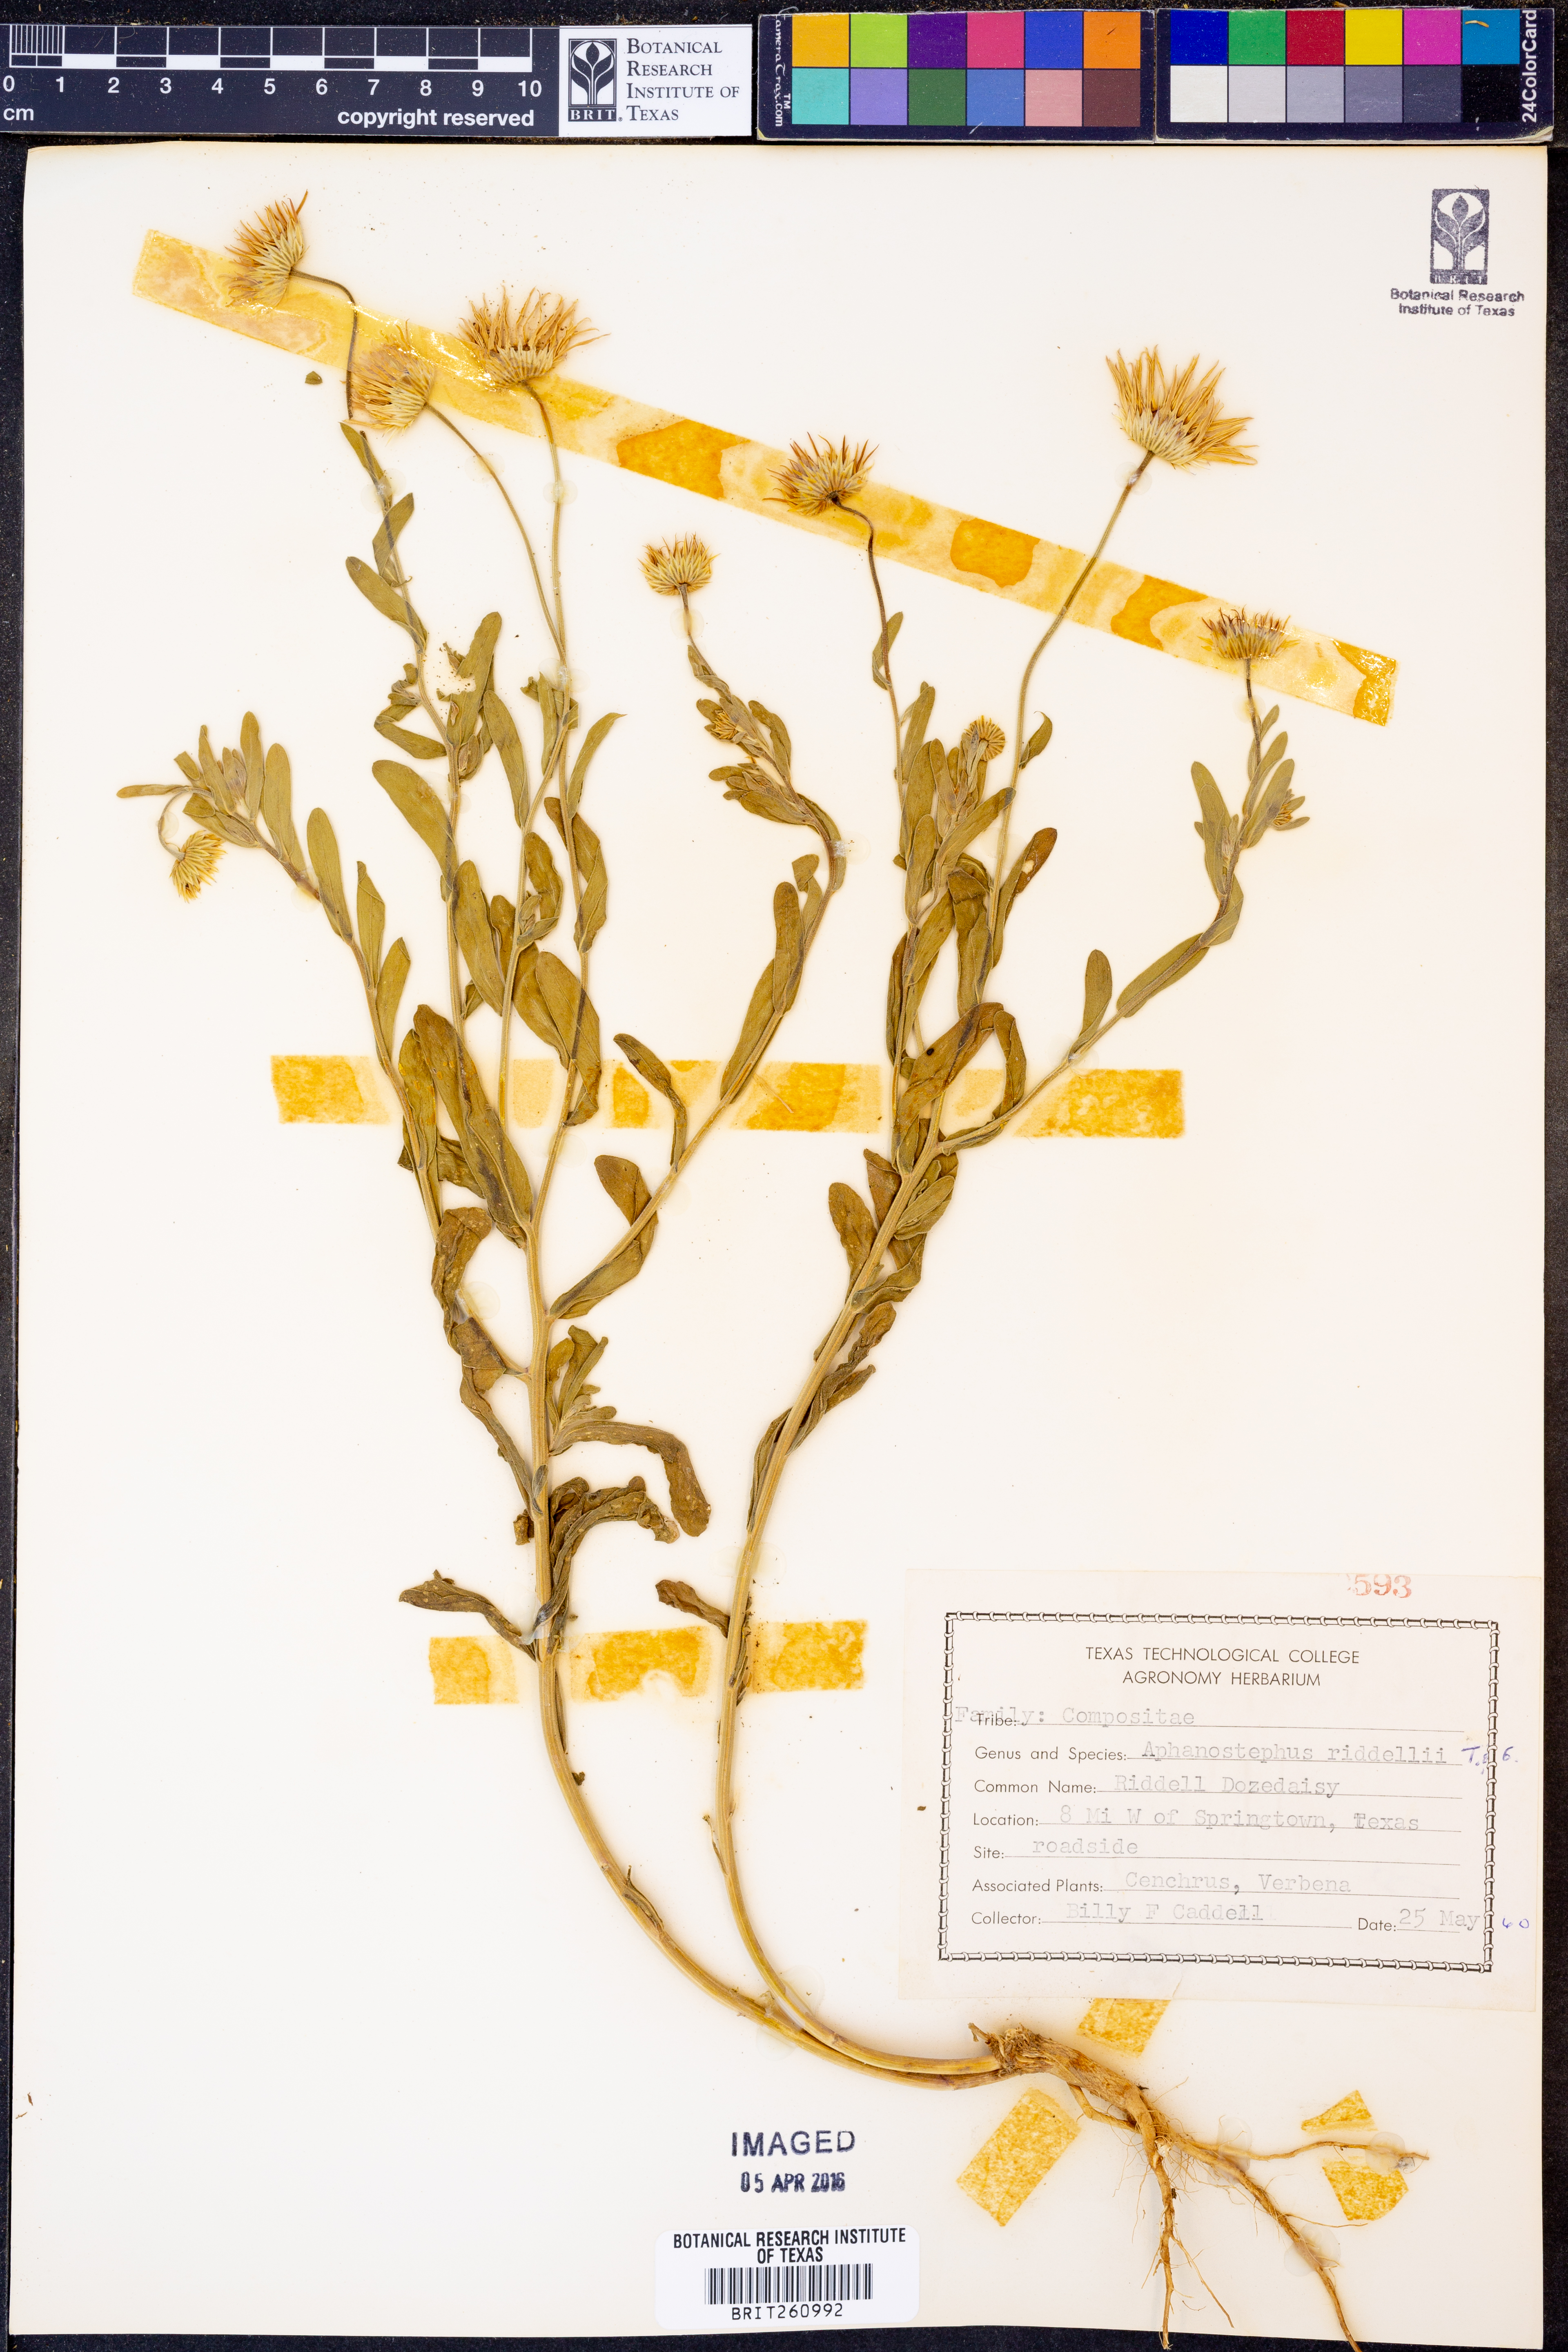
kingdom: Plantae
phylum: Tracheophyta
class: Magnoliopsida
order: Asterales
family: Asteraceae
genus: Aphanostephus
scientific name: Aphanostephus riddellii
